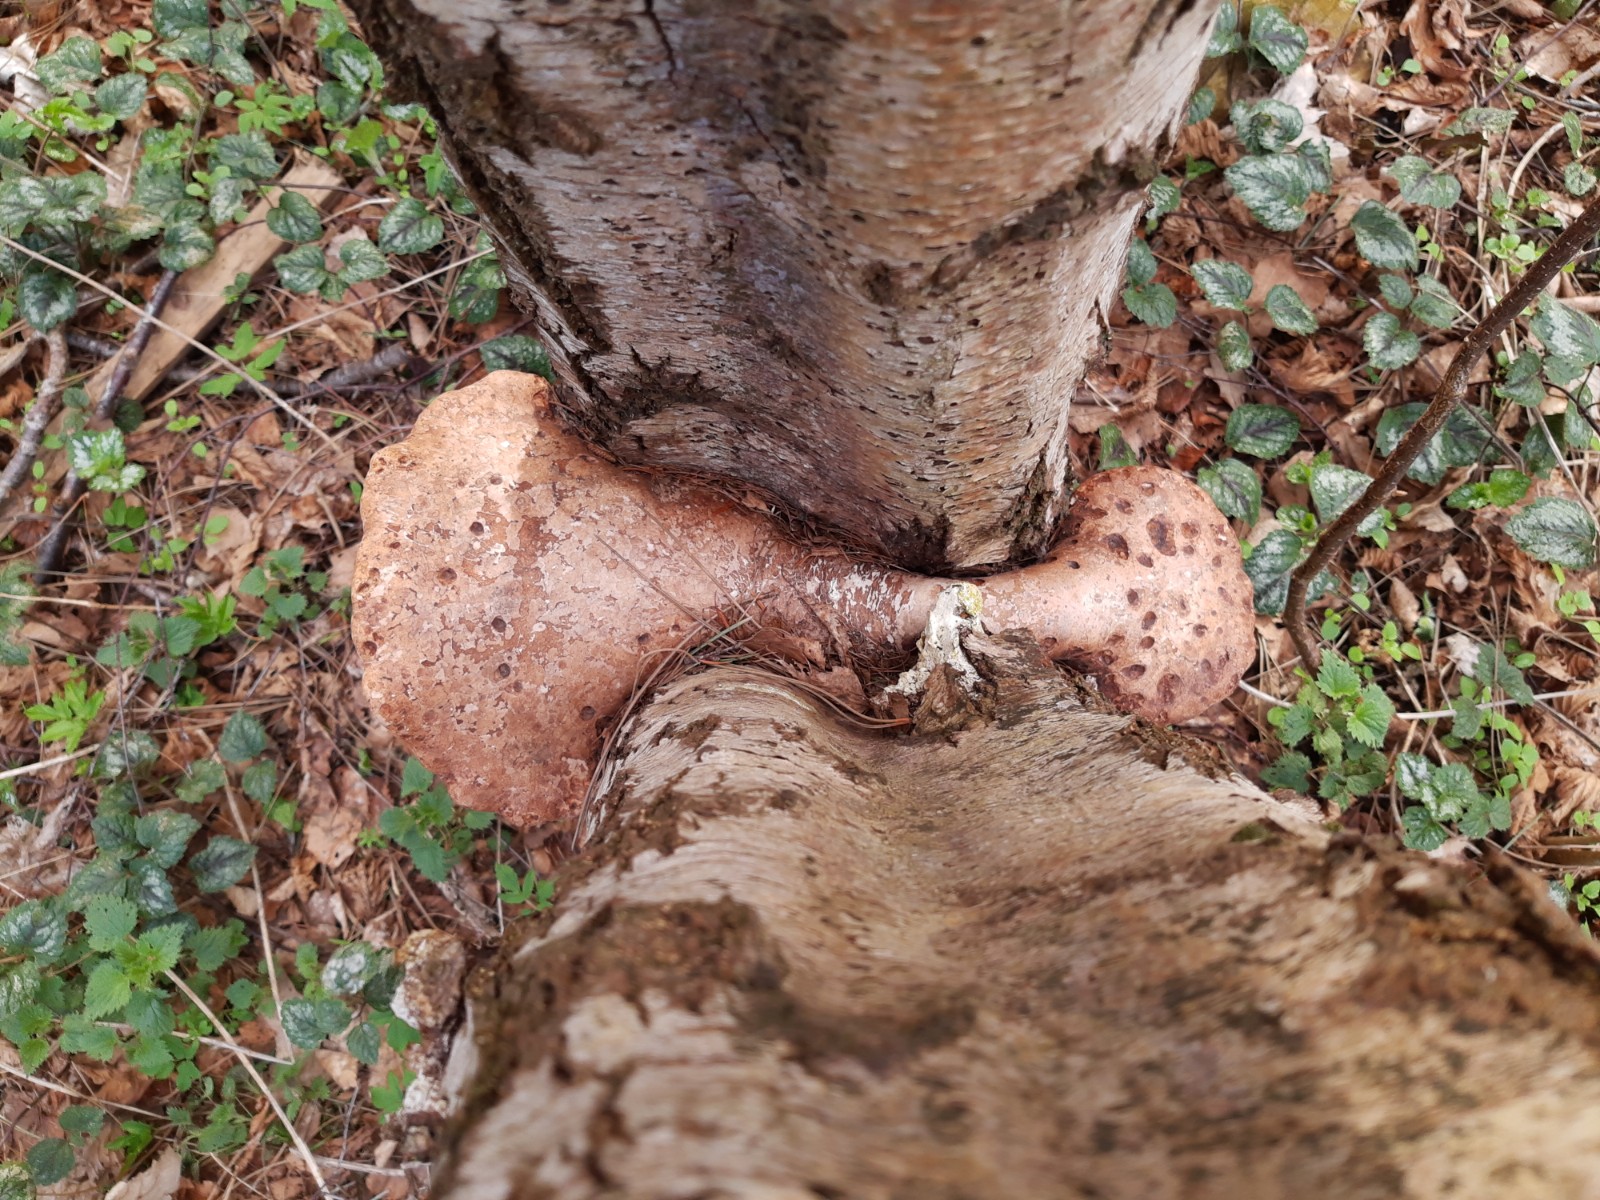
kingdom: Fungi
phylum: Basidiomycota
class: Agaricomycetes
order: Polyporales
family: Fomitopsidaceae
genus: Fomitopsis
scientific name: Fomitopsis betulina
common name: birkeporesvamp
